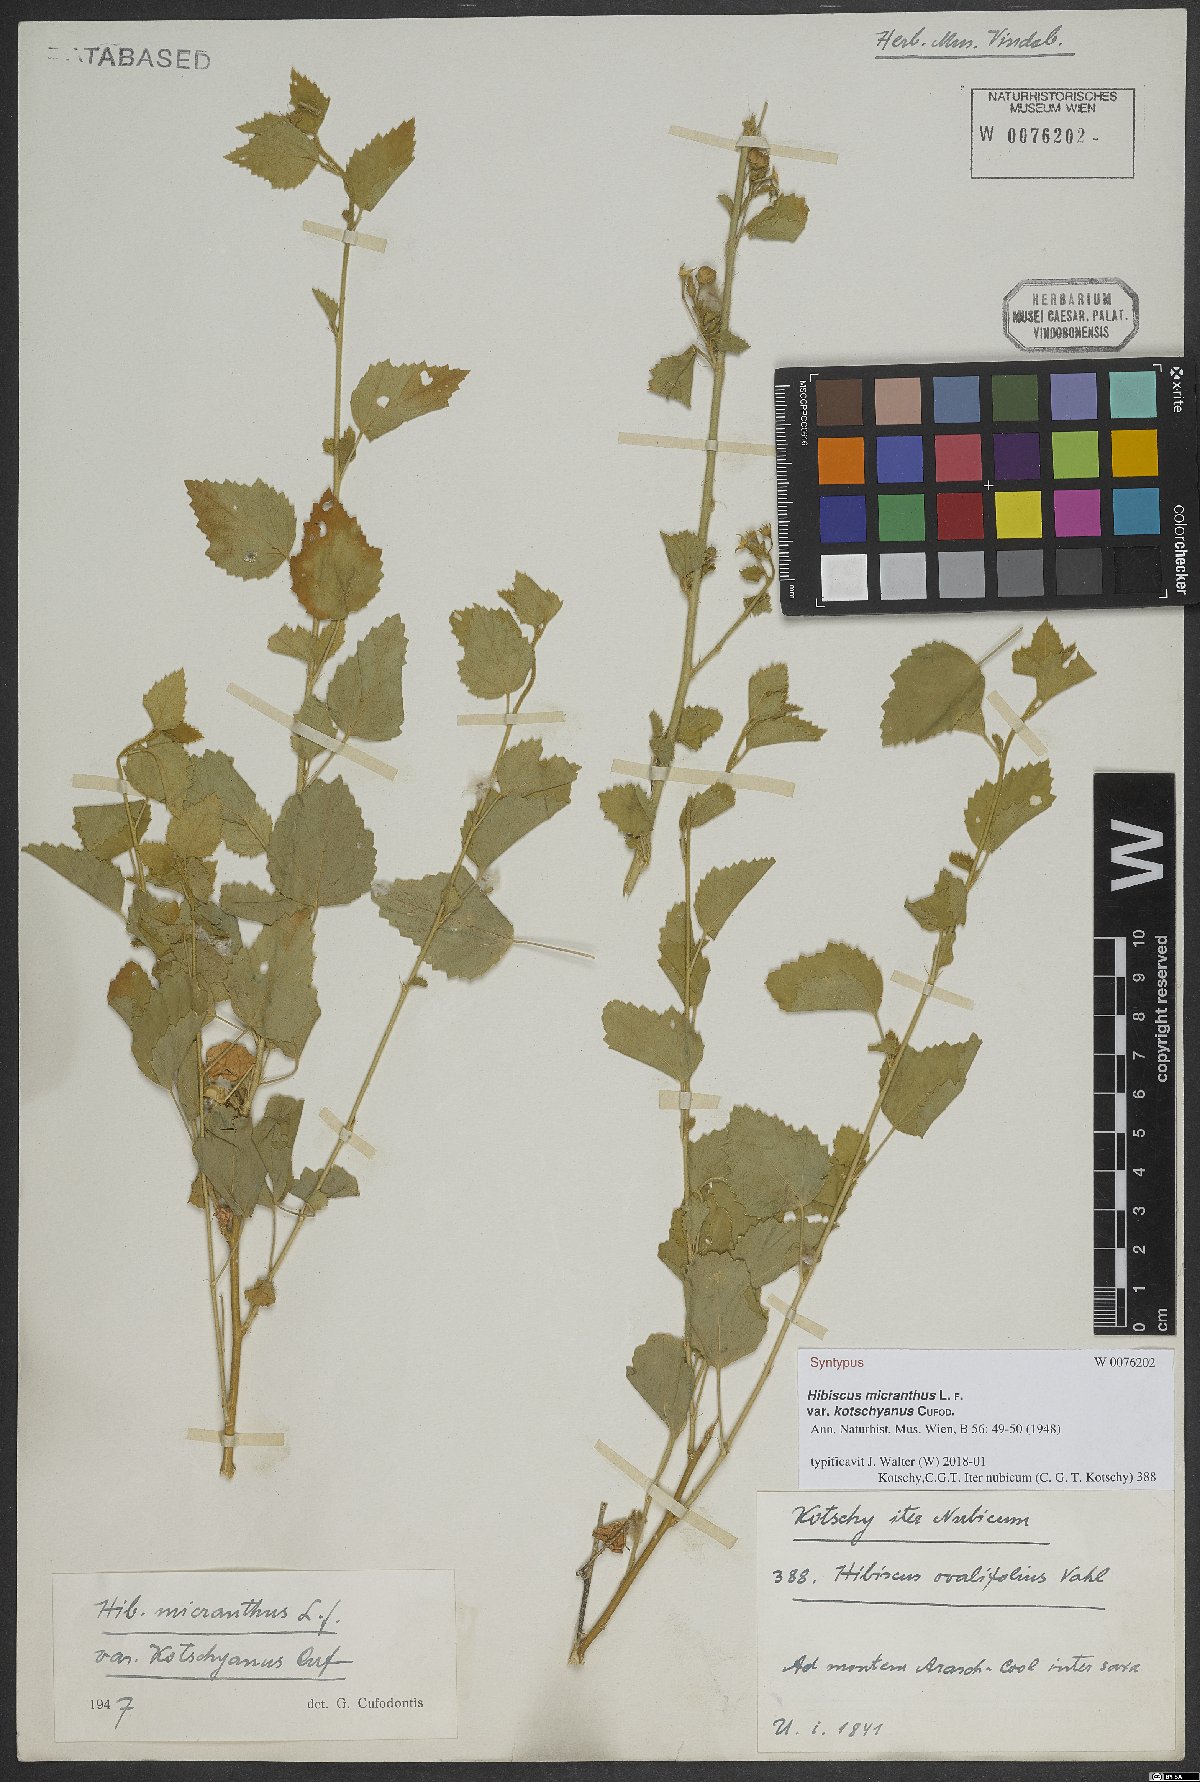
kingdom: Plantae
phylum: Tracheophyta
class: Magnoliopsida
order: Malvales
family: Malvaceae
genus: Hibiscus
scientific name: Hibiscus micranthus
